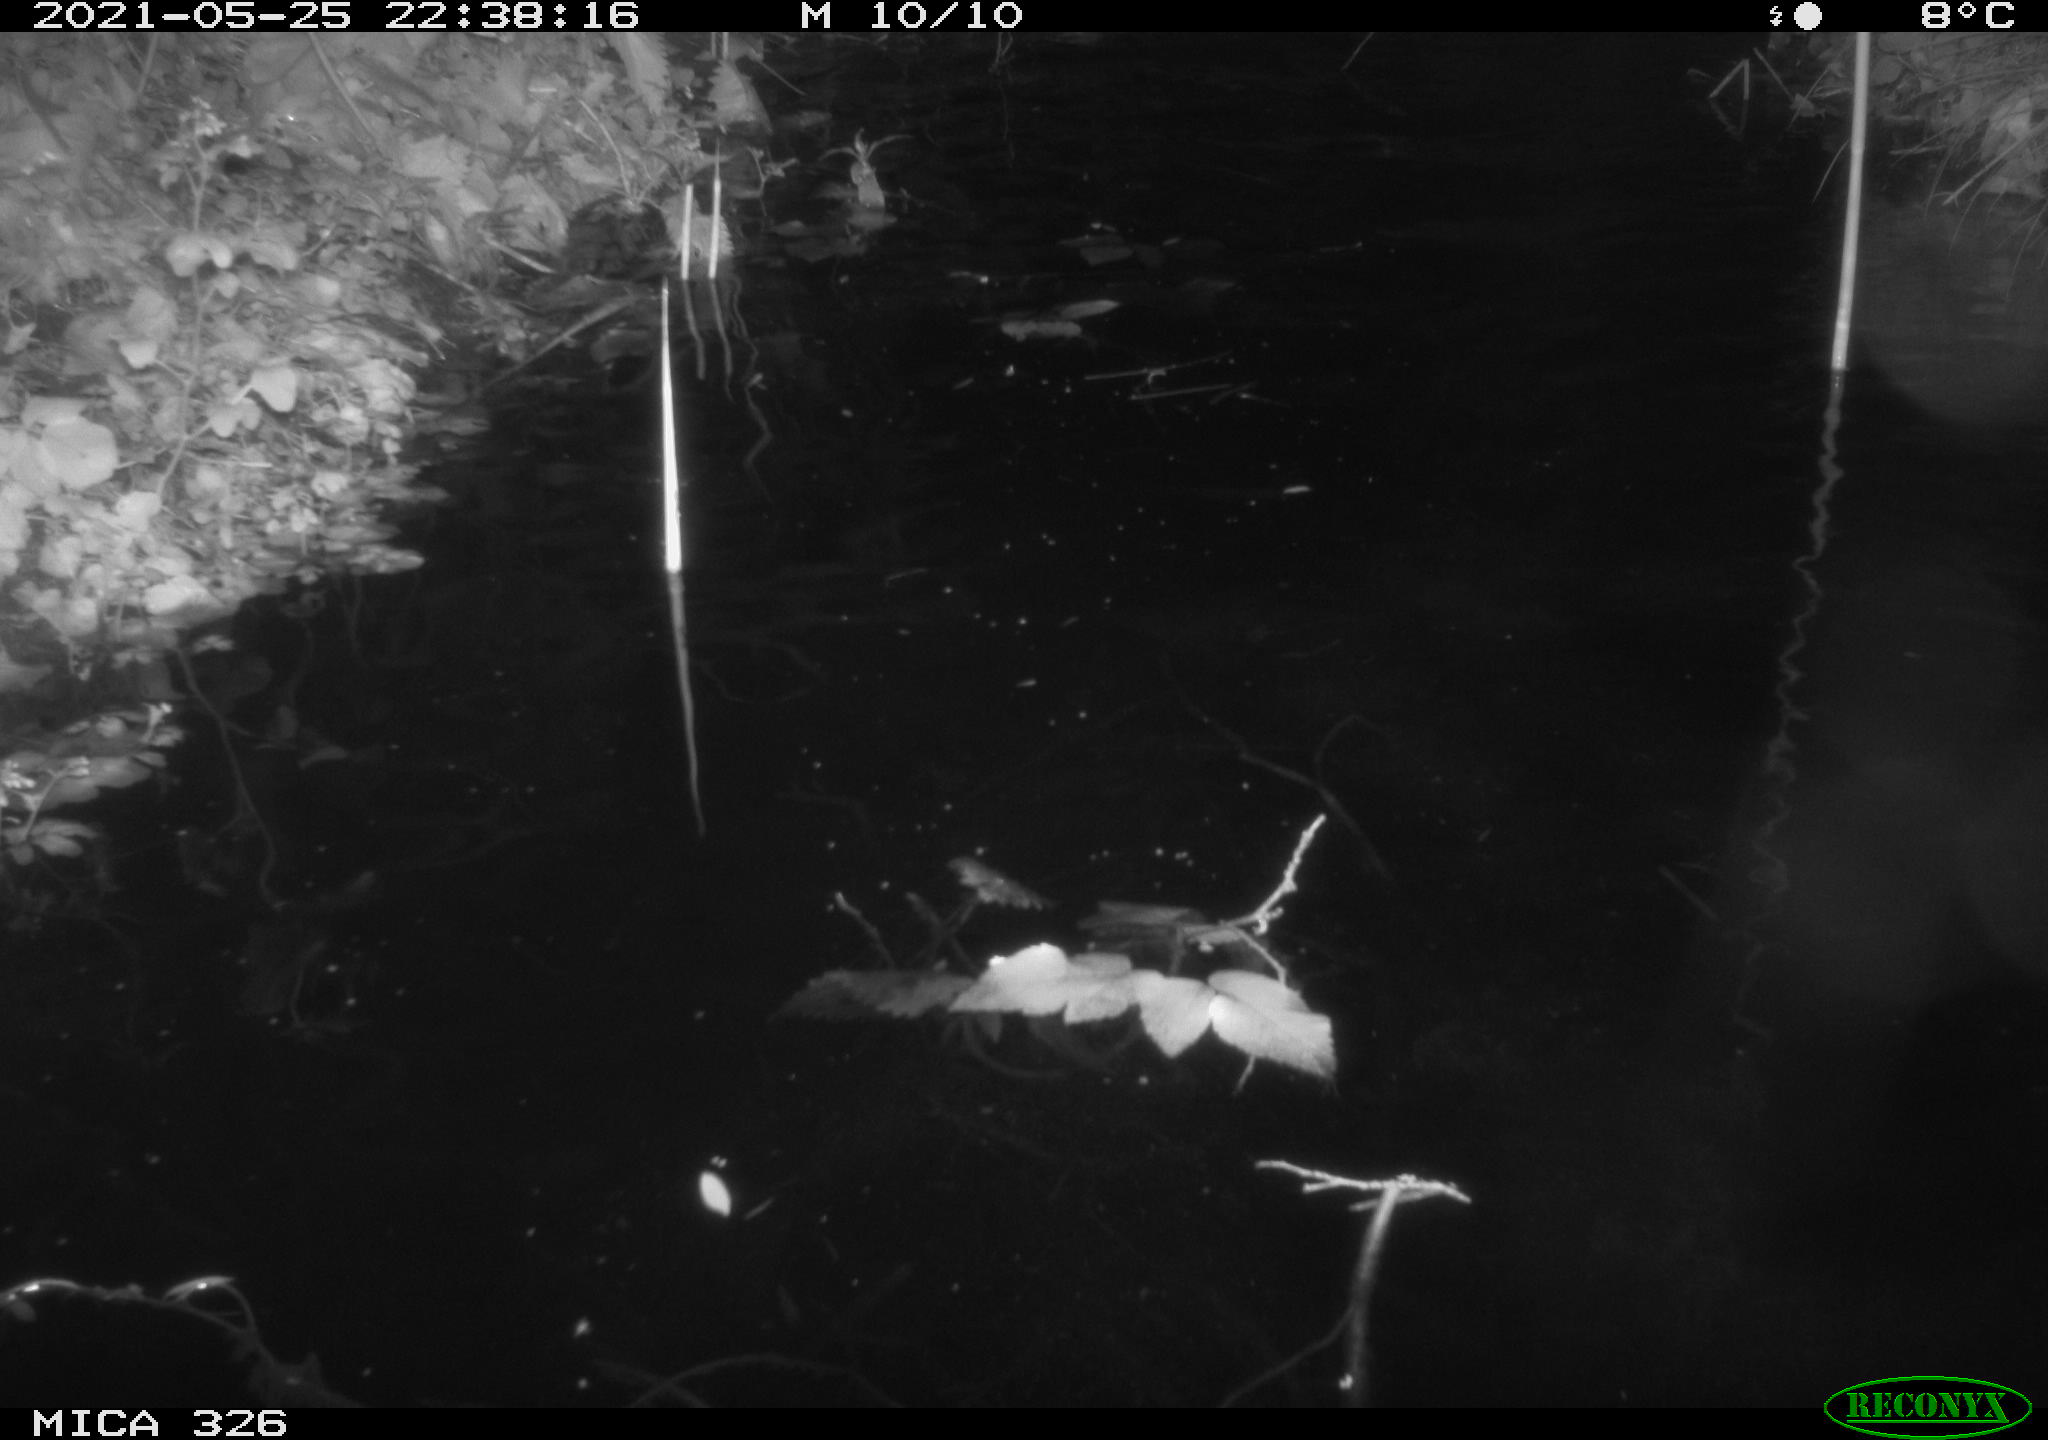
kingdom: Animalia
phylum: Chordata
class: Mammalia
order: Rodentia
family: Cricetidae
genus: Ondatra
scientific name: Ondatra zibethicus
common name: Muskrat
